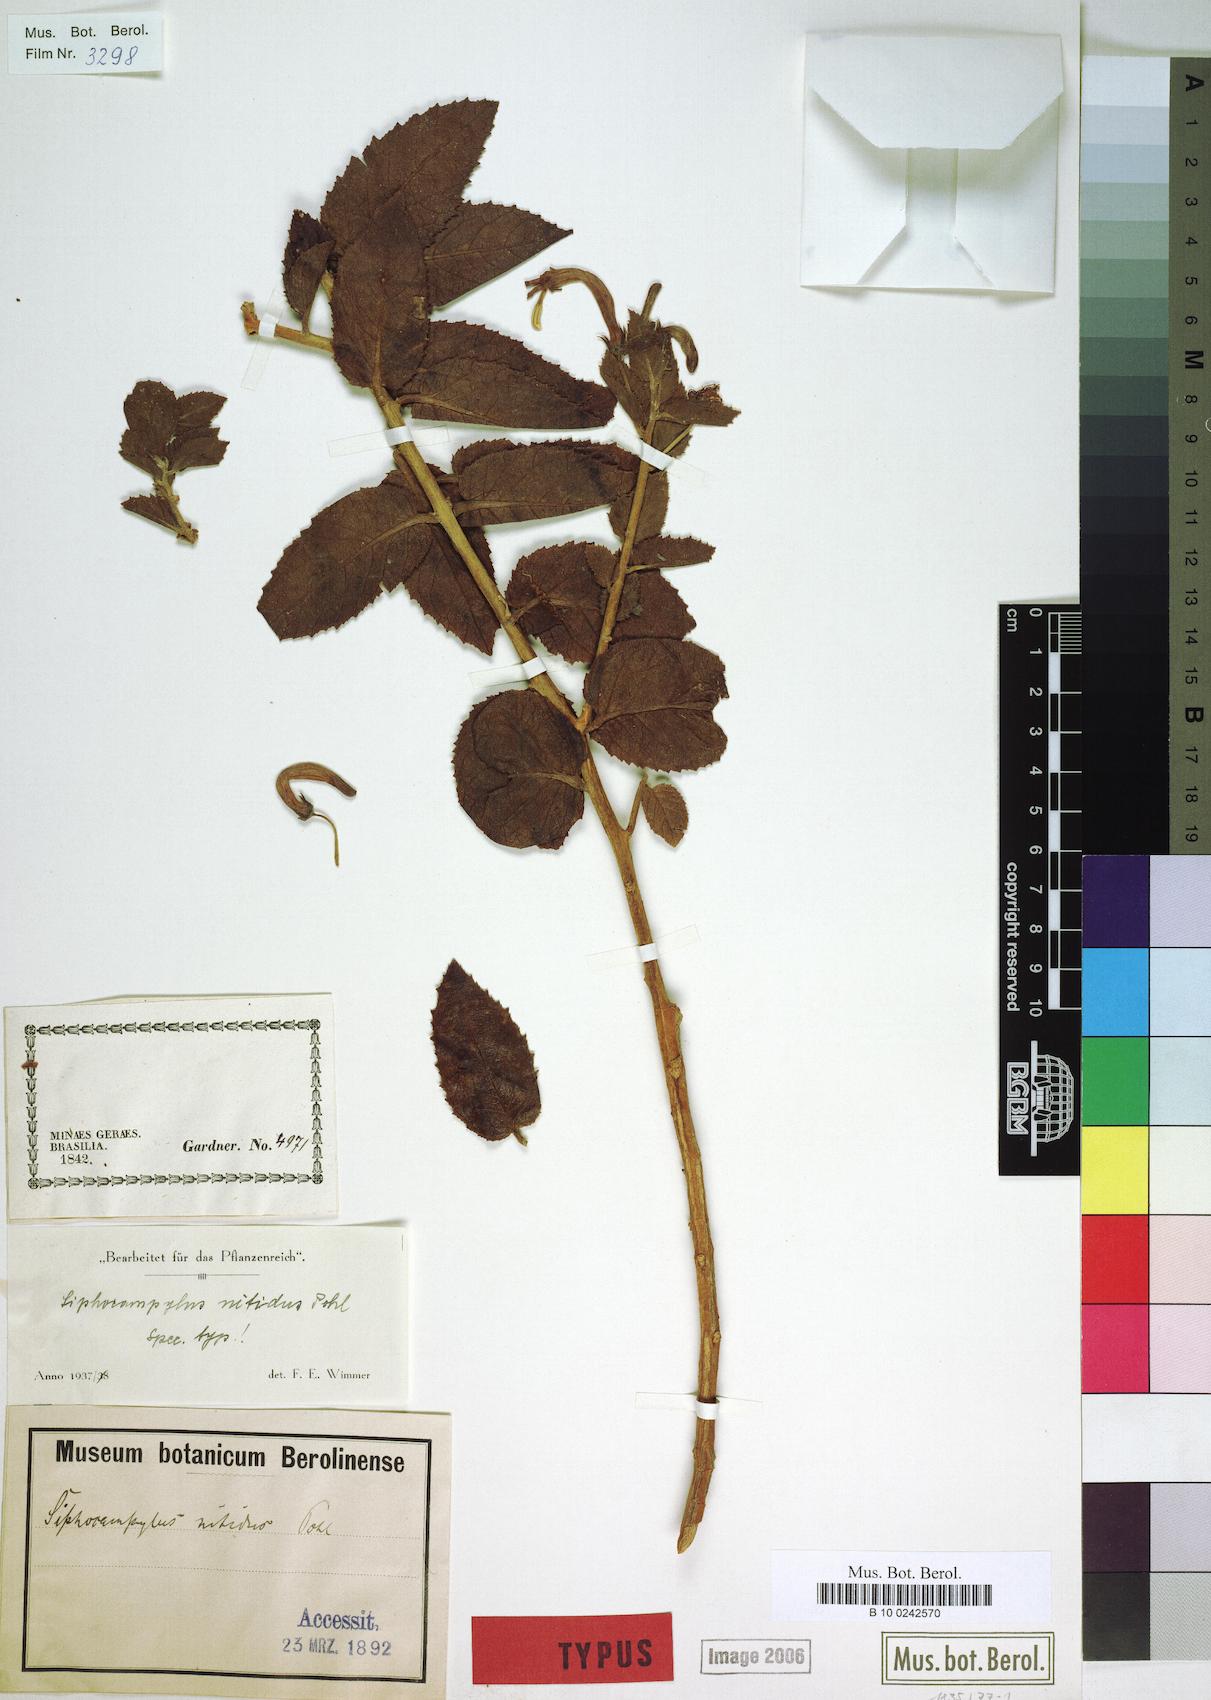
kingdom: Plantae
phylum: Tracheophyta
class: Magnoliopsida
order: Asterales
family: Campanulaceae
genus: Siphocampylus
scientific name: Siphocampylus nitidus
